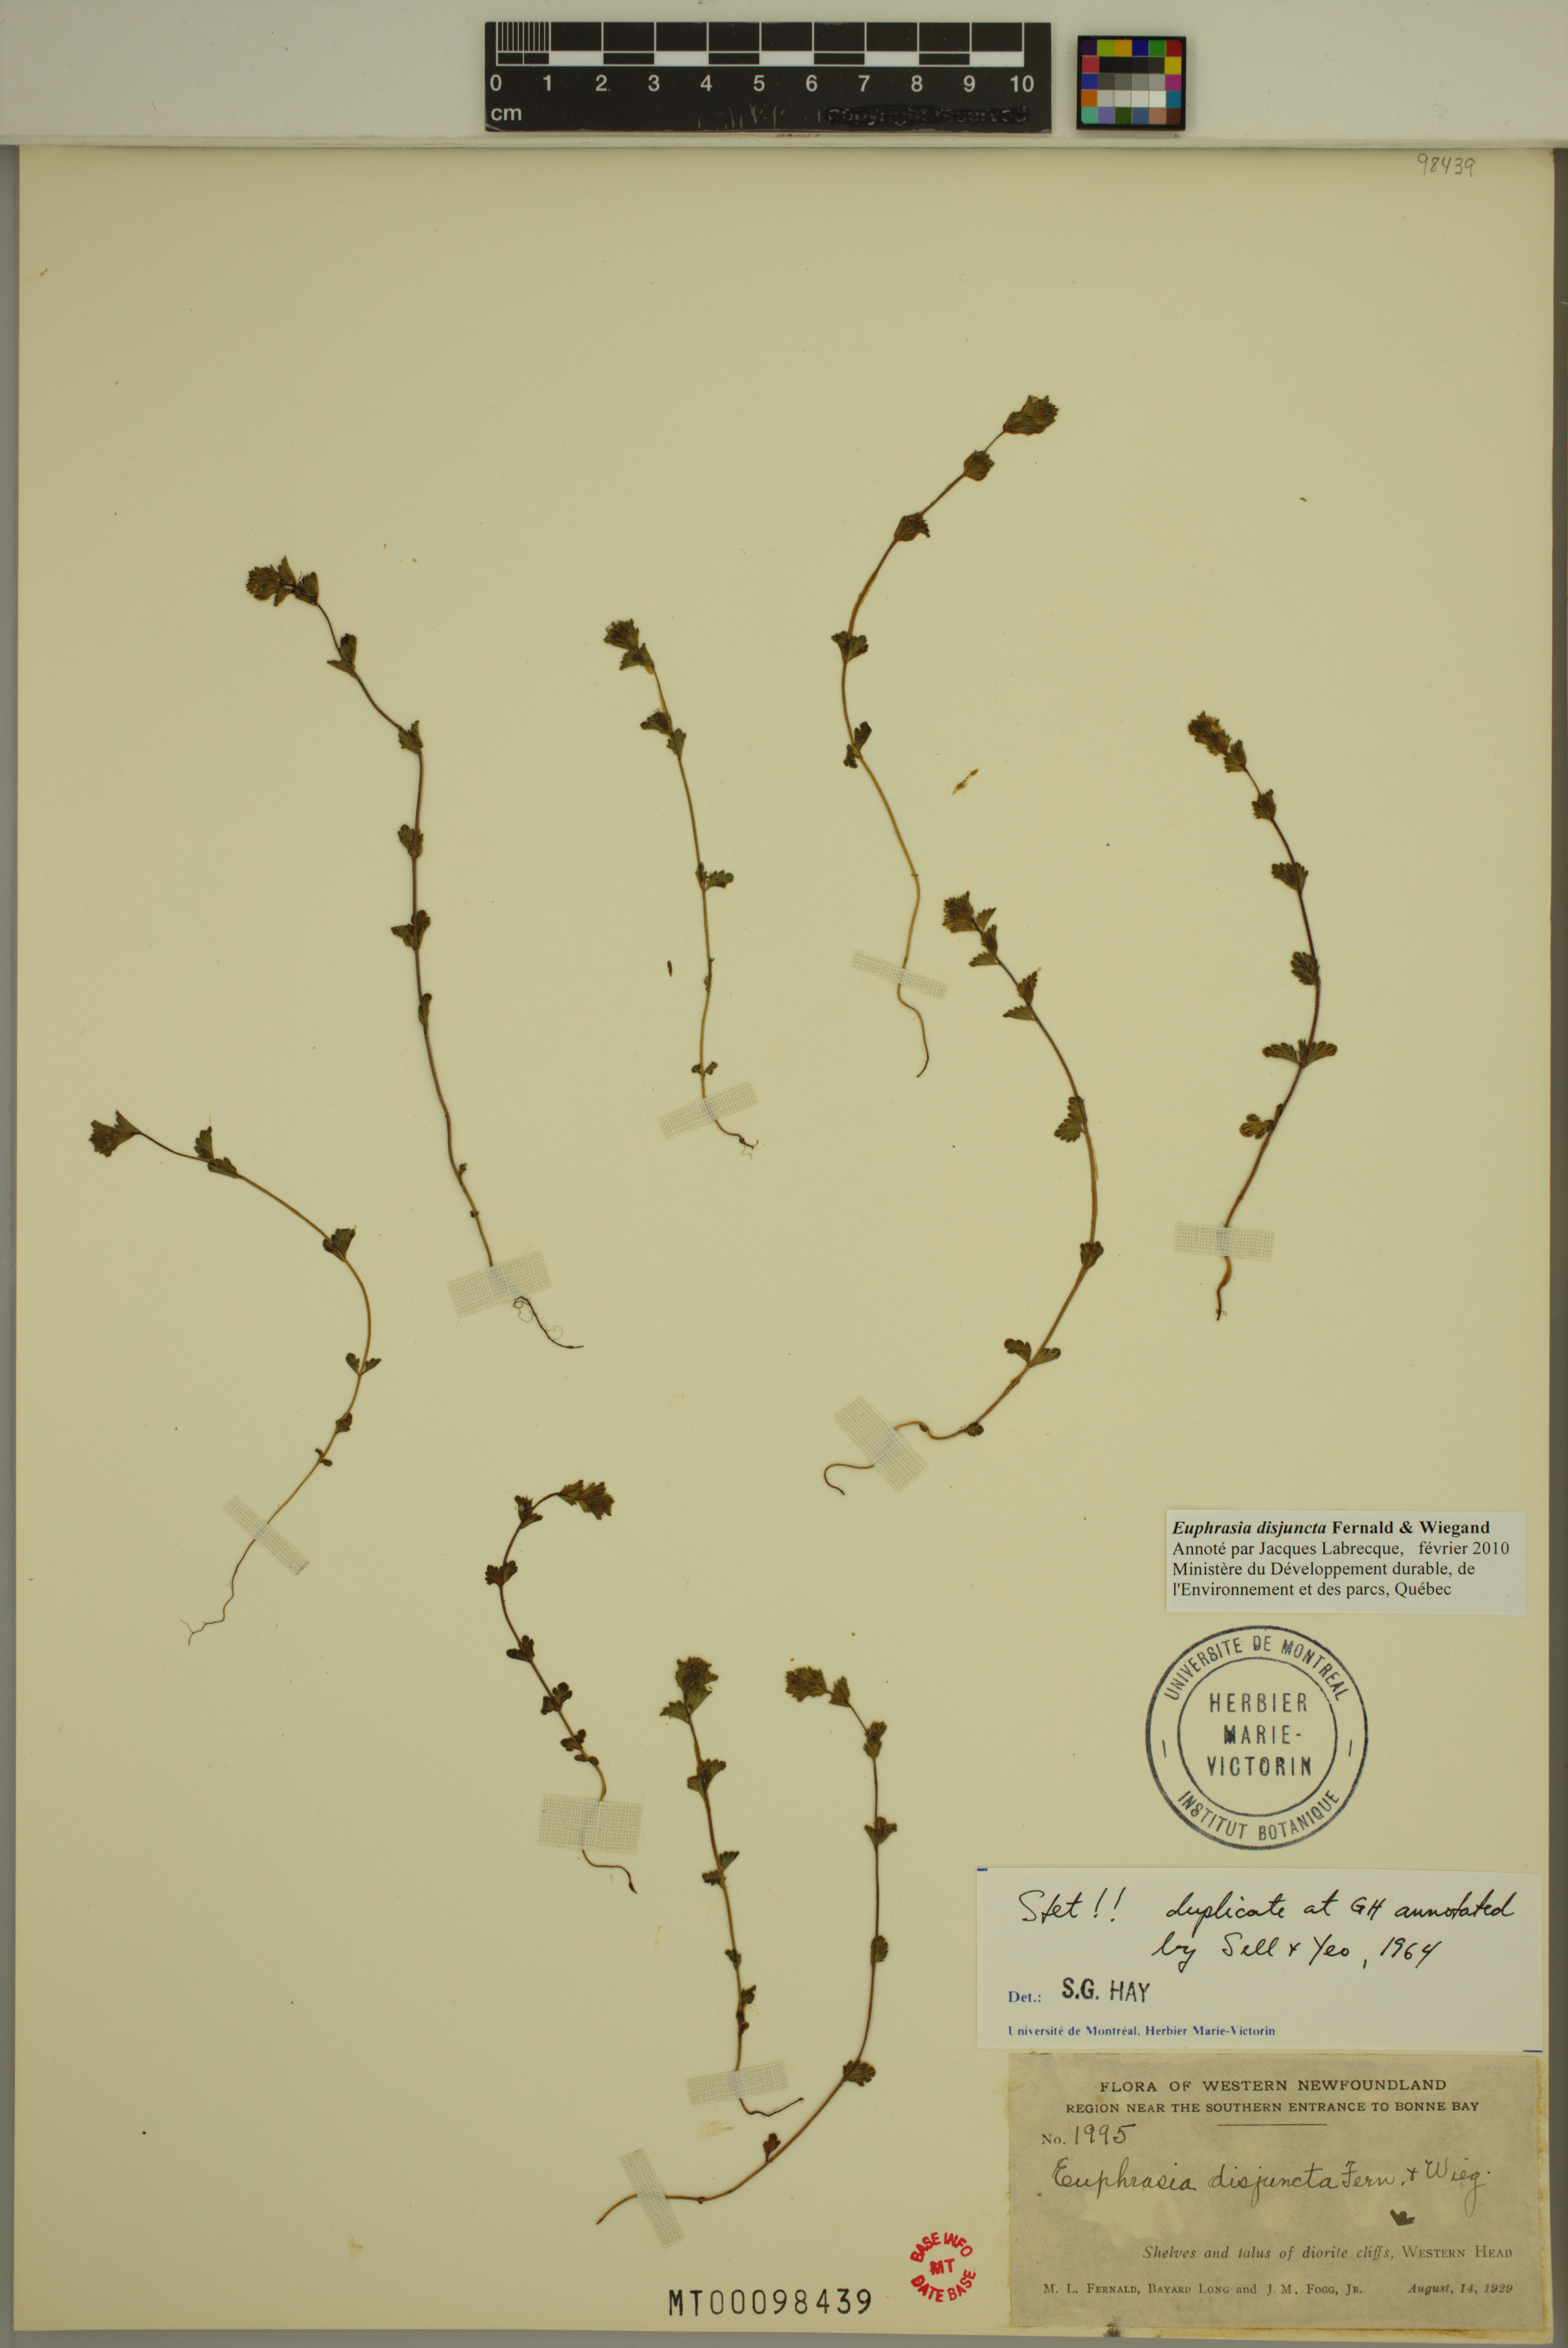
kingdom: Plantae
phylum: Tracheophyta
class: Magnoliopsida
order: Lamiales
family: Orobanchaceae
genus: Euphrasia
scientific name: Euphrasia disjuncta
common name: Polar eyebright
